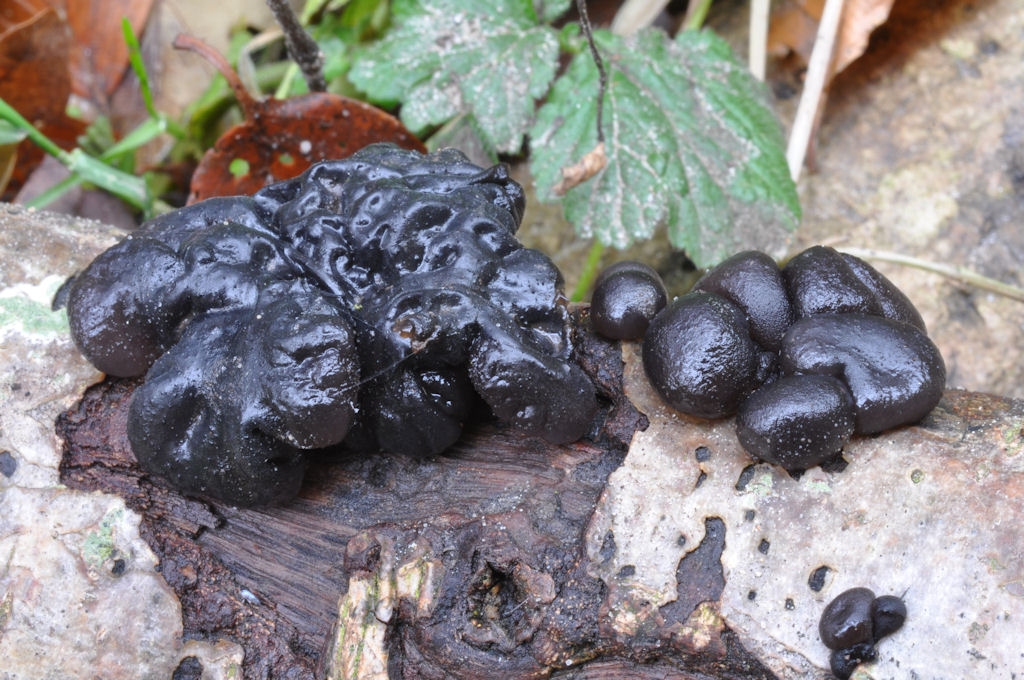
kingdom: Fungi
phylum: Basidiomycota
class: Agaricomycetes
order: Auriculariales
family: Auriculariaceae
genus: Exidia
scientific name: Exidia nigricans
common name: almindelig bævretop
